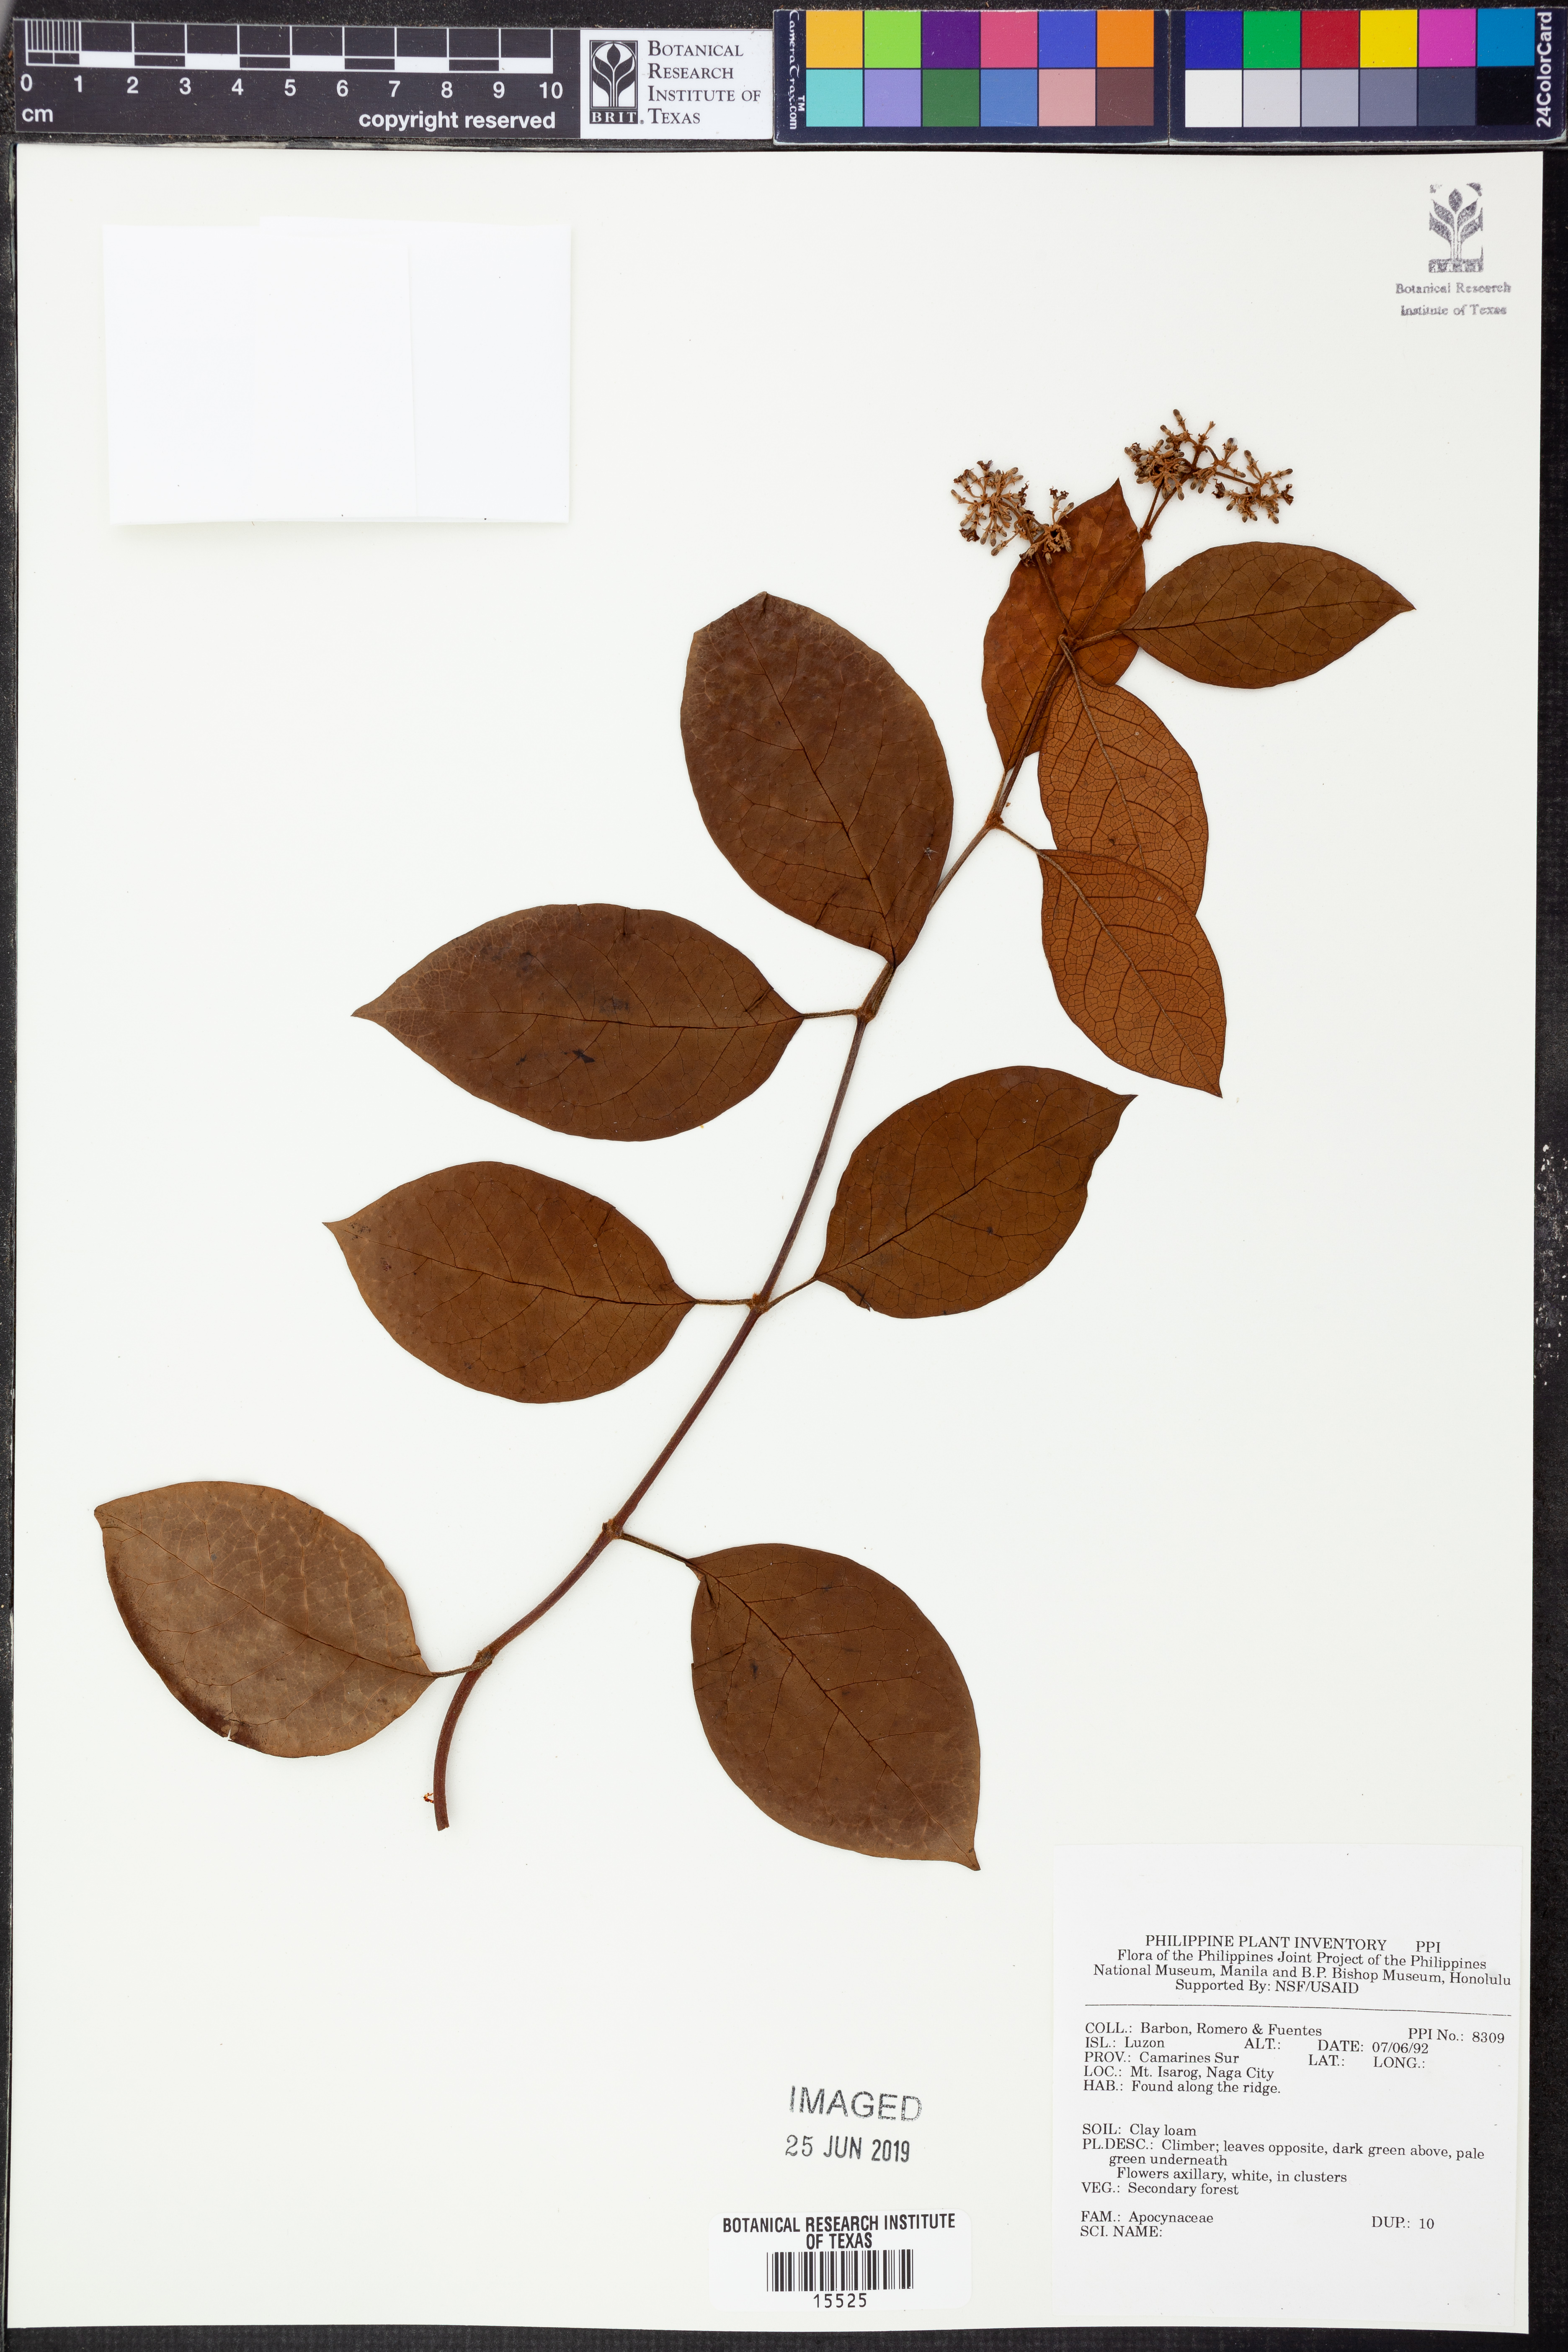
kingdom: Plantae
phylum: Tracheophyta
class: Magnoliopsida
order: Gentianales
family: Apocynaceae
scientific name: Apocynaceae
